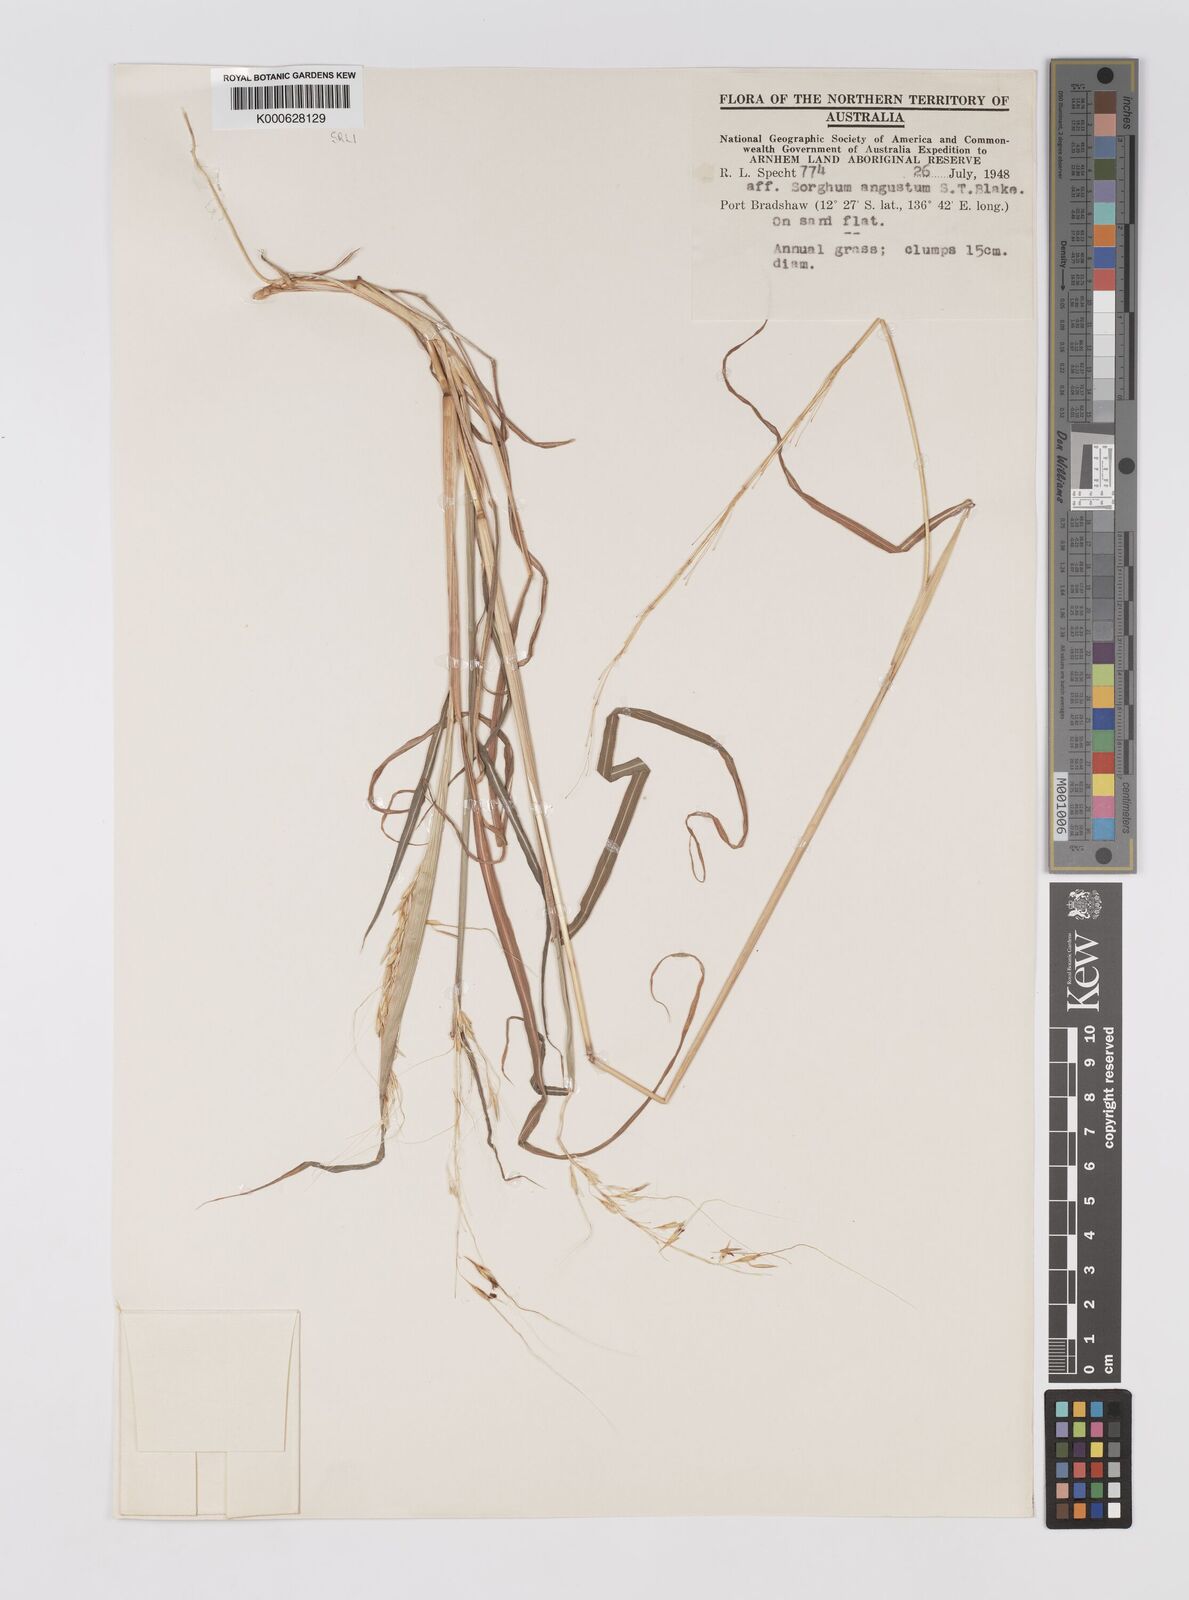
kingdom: Plantae
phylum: Tracheophyta
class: Liliopsida
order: Poales
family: Poaceae
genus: Sarga
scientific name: Sarga angusta
